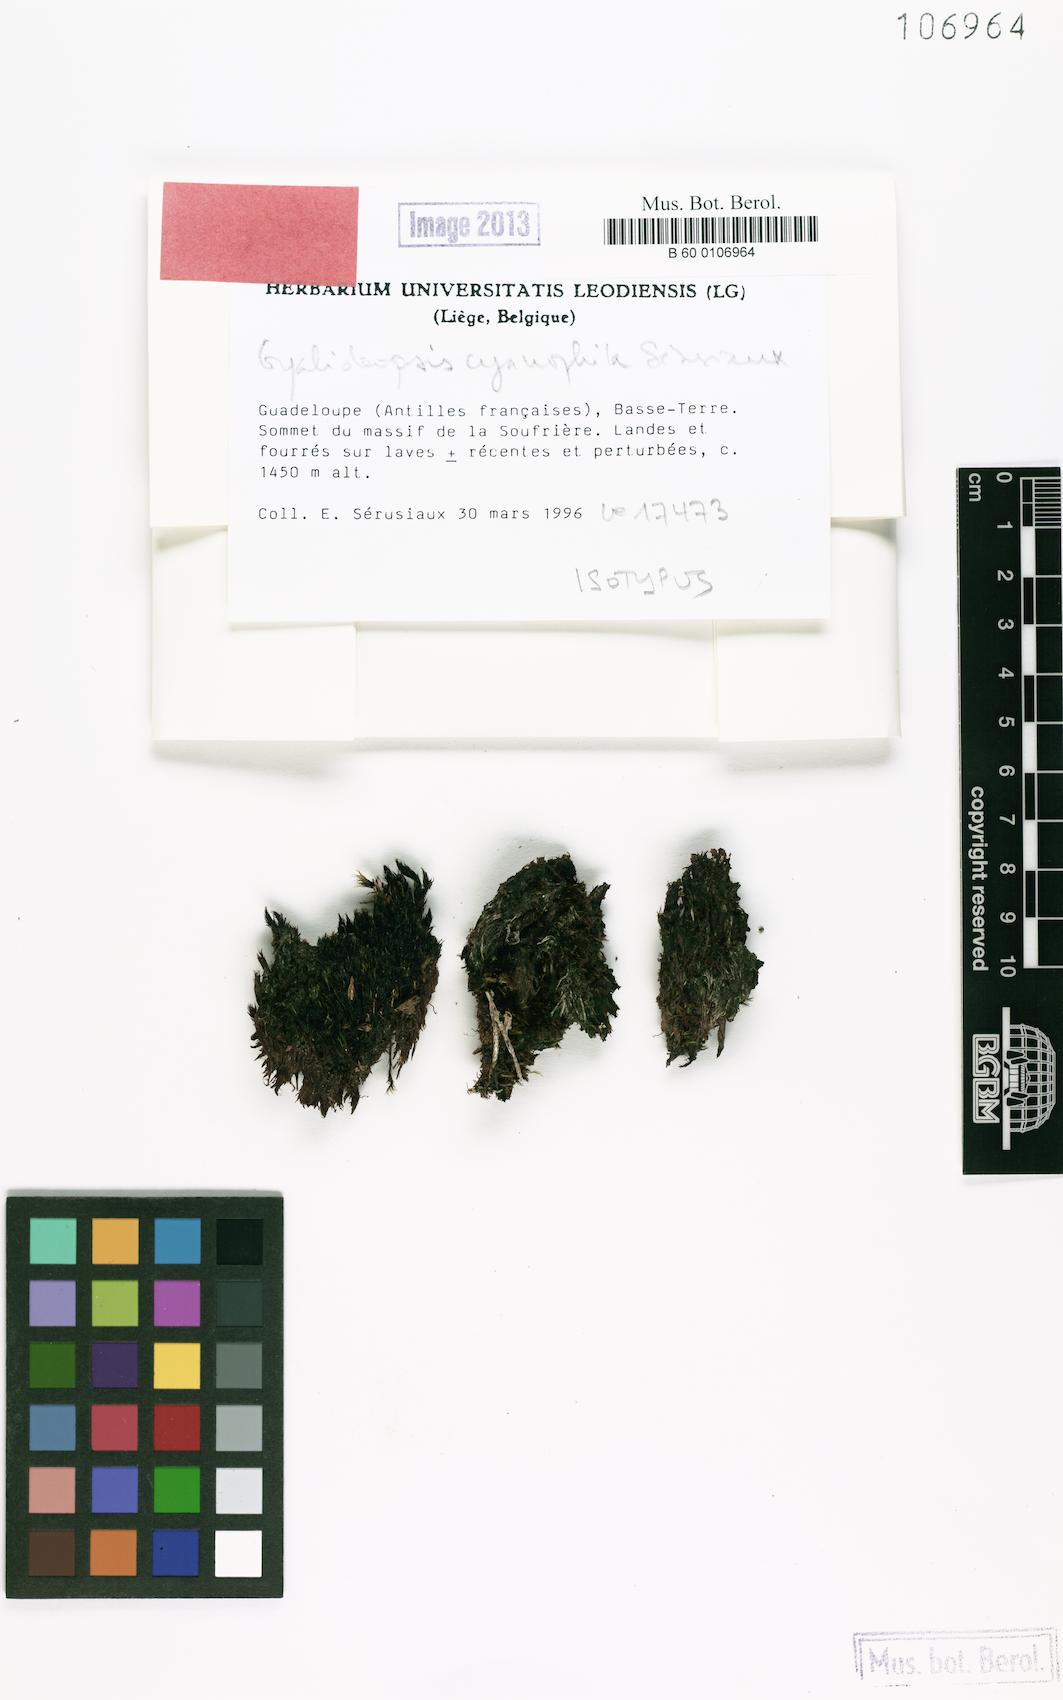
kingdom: Fungi
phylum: Ascomycota
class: Lecanoromycetes
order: Ostropales
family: Gomphillaceae
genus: Gyalideopsis
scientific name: Gyalideopsis cyanophila
